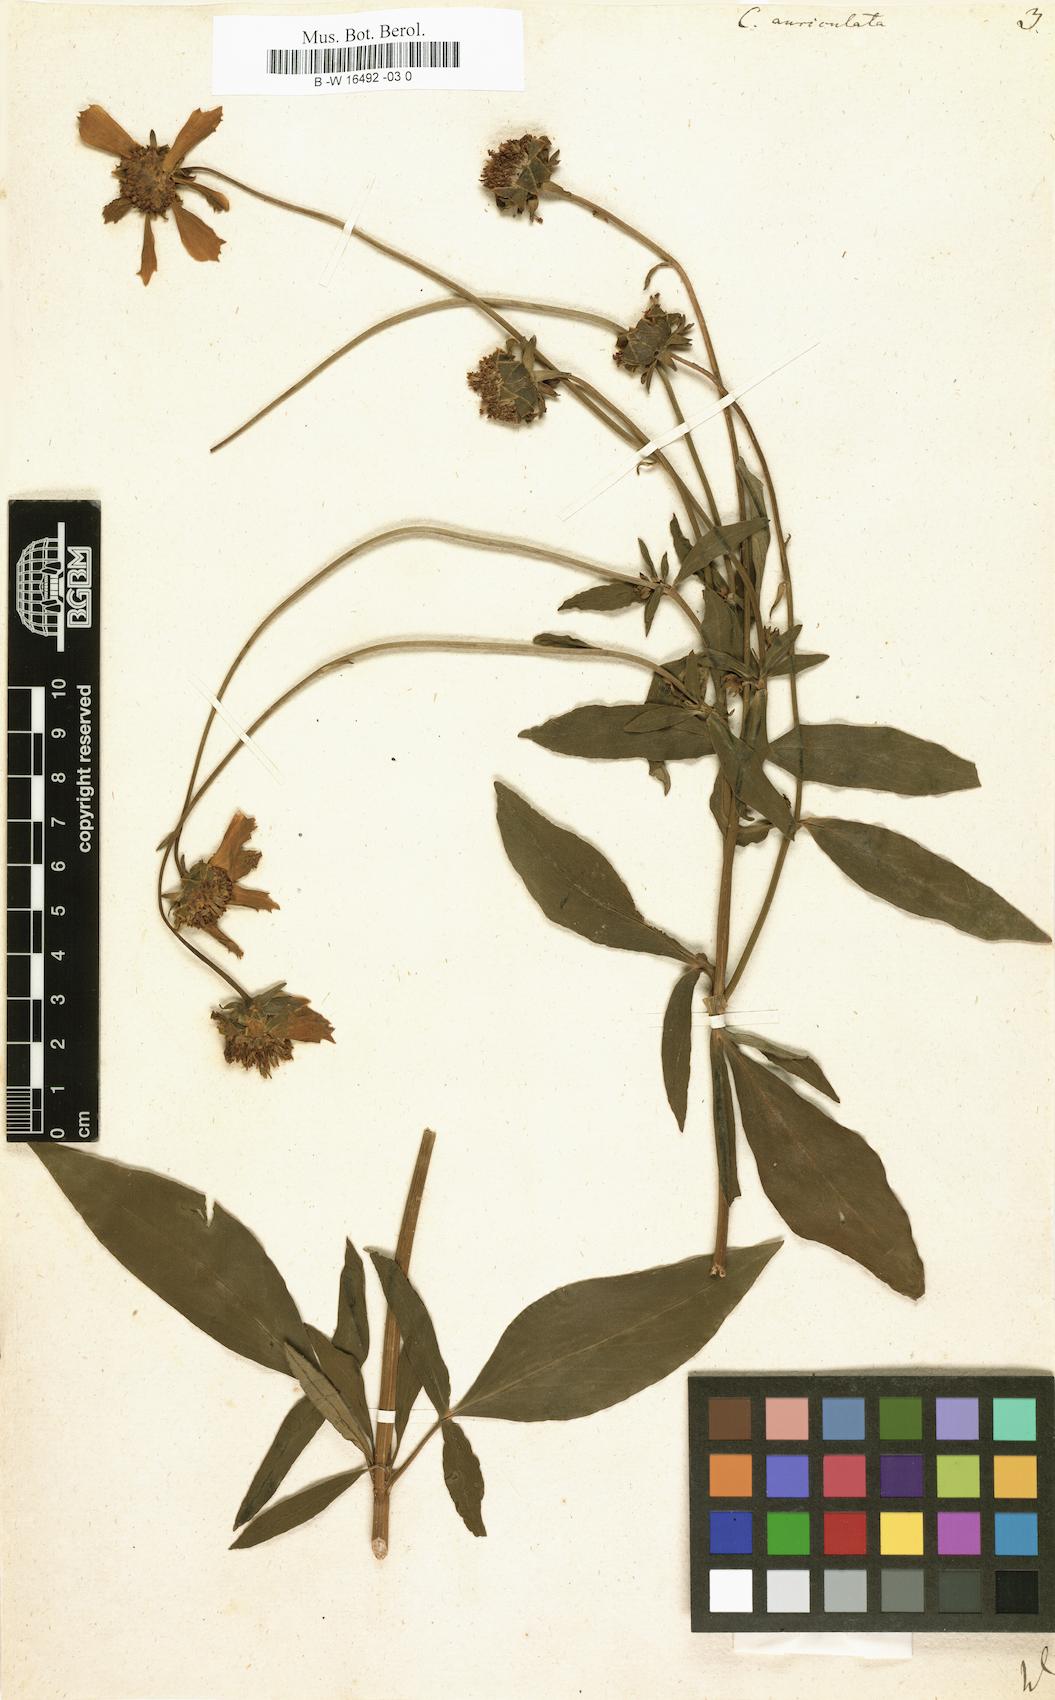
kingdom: Plantae
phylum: Tracheophyta
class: Magnoliopsida
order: Asterales
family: Asteraceae
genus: Coreopsis
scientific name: Coreopsis auriculata
